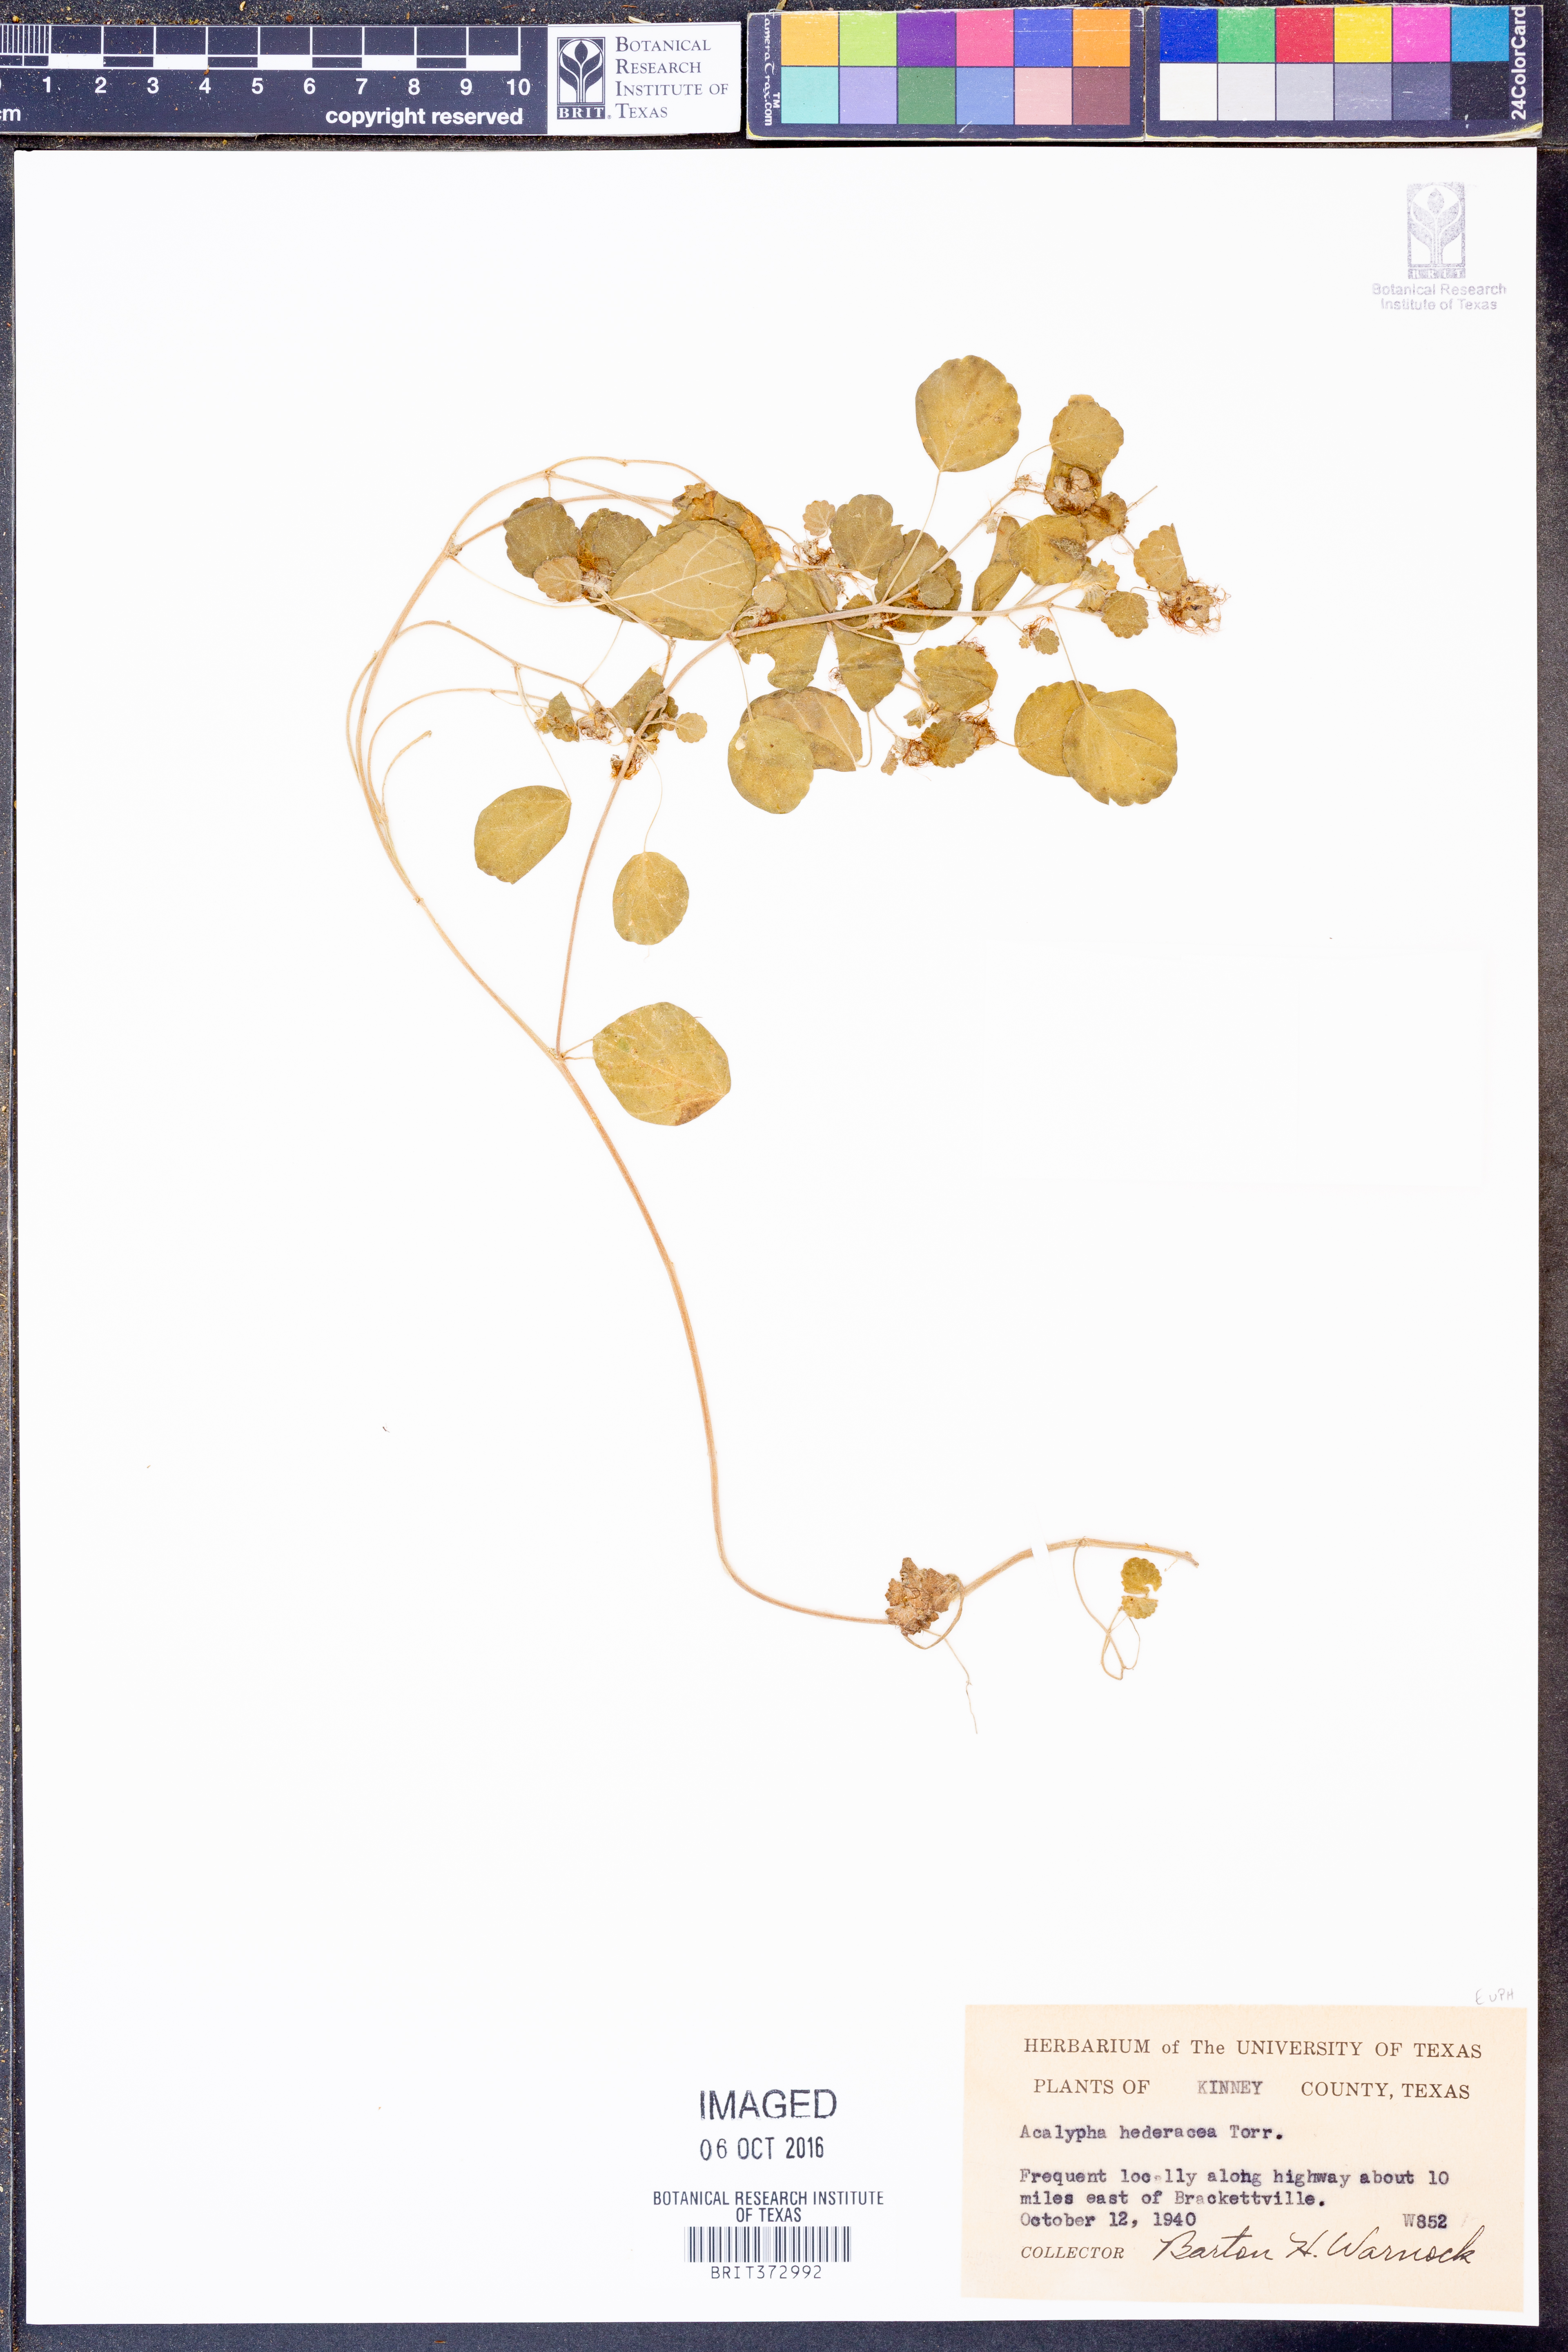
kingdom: Plantae
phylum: Tracheophyta
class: Magnoliopsida
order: Malpighiales
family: Euphorbiaceae
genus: Acalypha
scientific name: Acalypha monostachya
